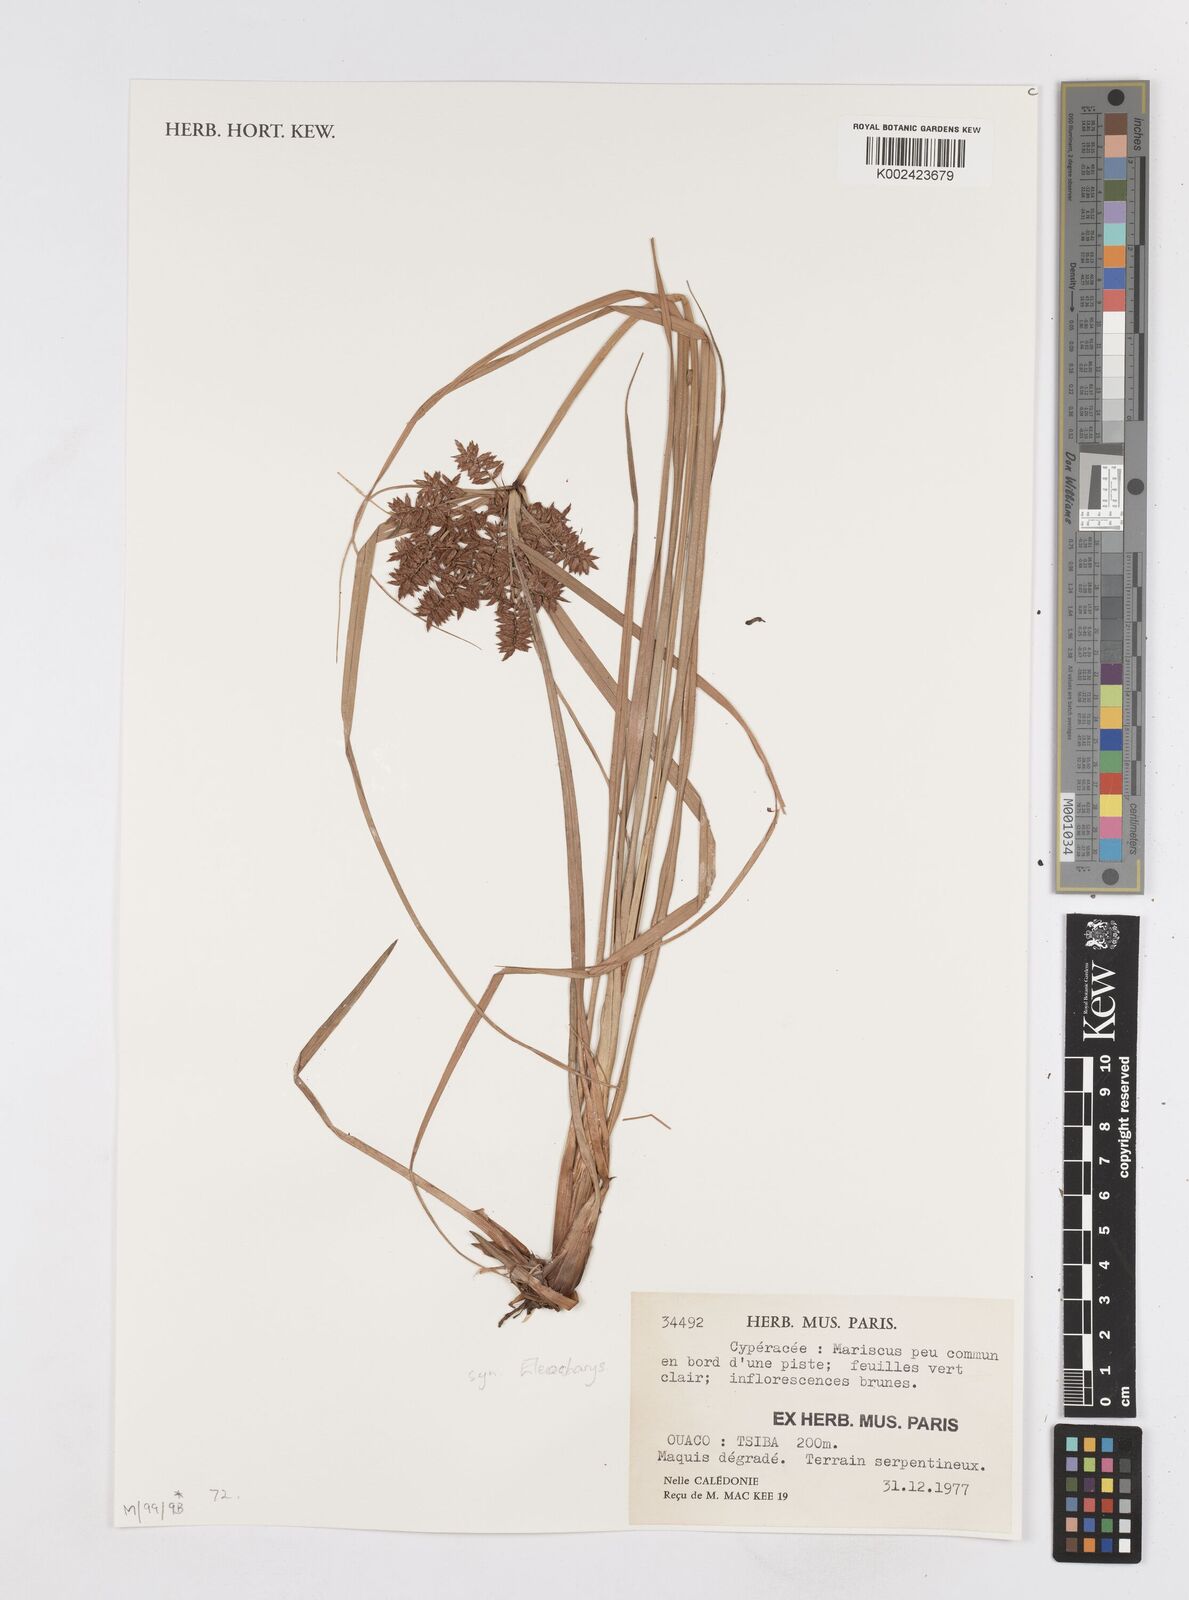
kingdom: Plantae
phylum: Tracheophyta
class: Liliopsida
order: Poales
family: Cyperaceae
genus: Eleocharis
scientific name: Eleocharis
